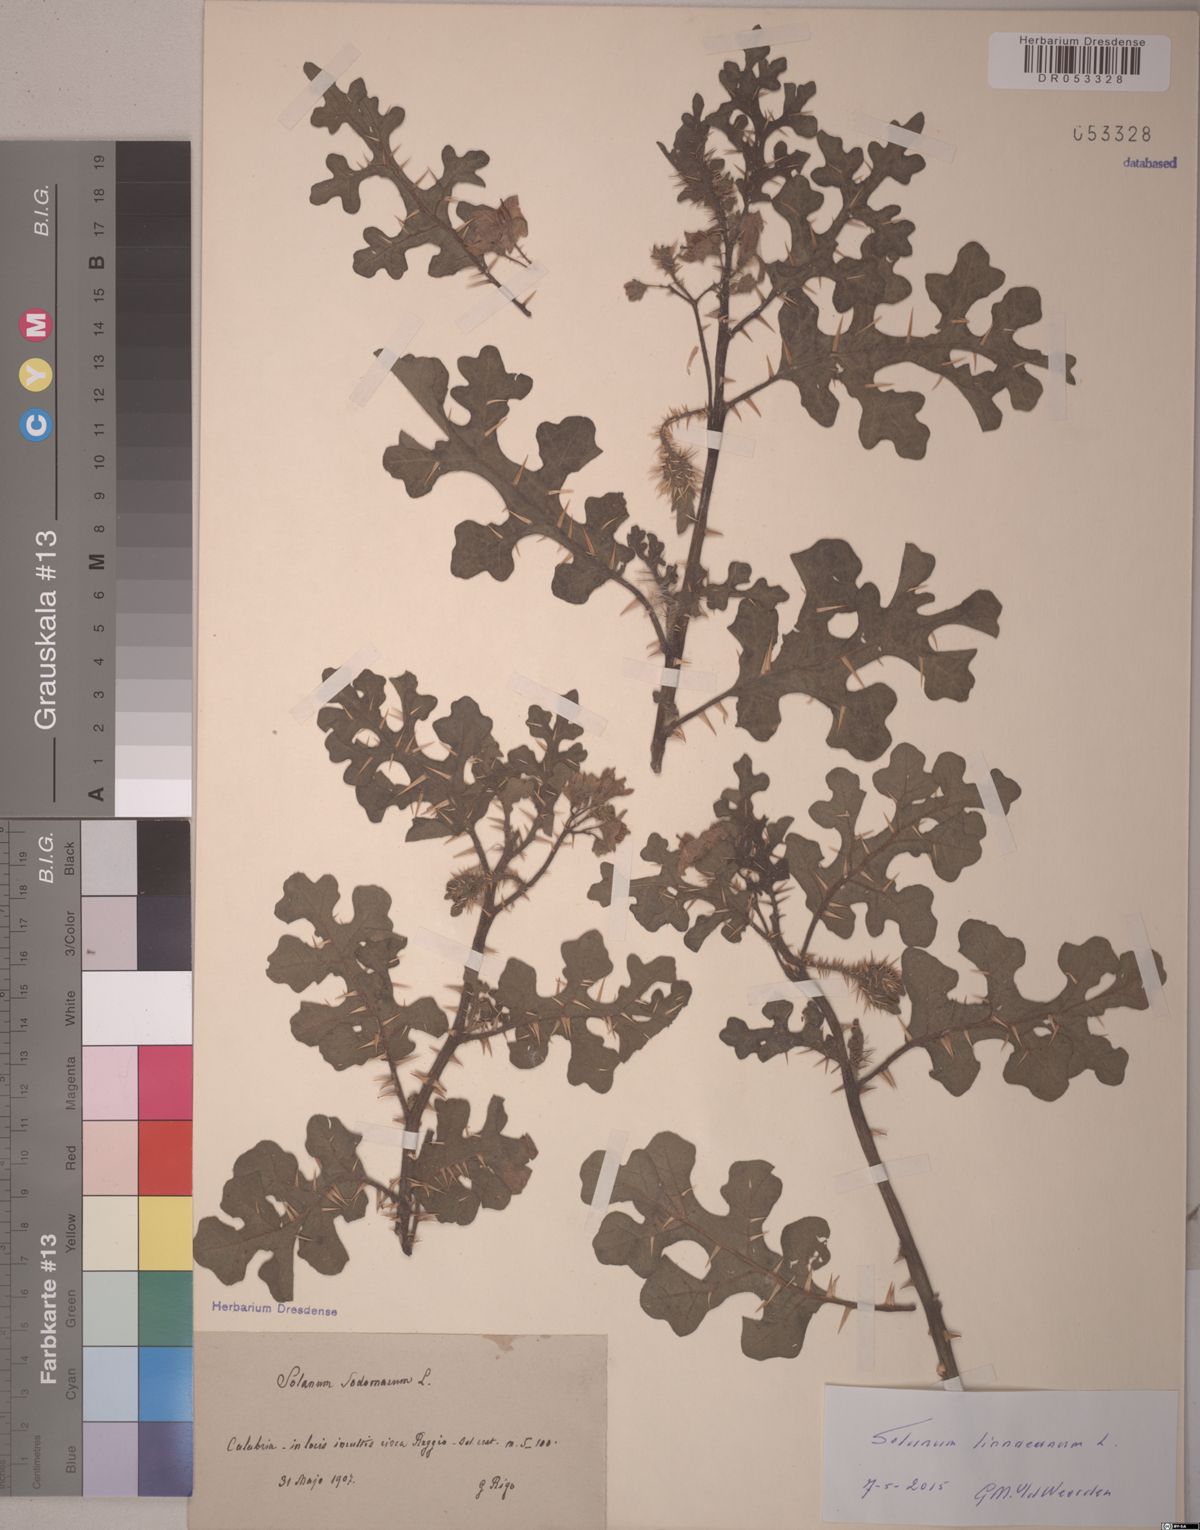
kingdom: Plantae
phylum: Tracheophyta
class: Magnoliopsida
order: Solanales
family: Solanaceae
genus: Solanum
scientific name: Solanum linnaeanum
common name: Nightshade
